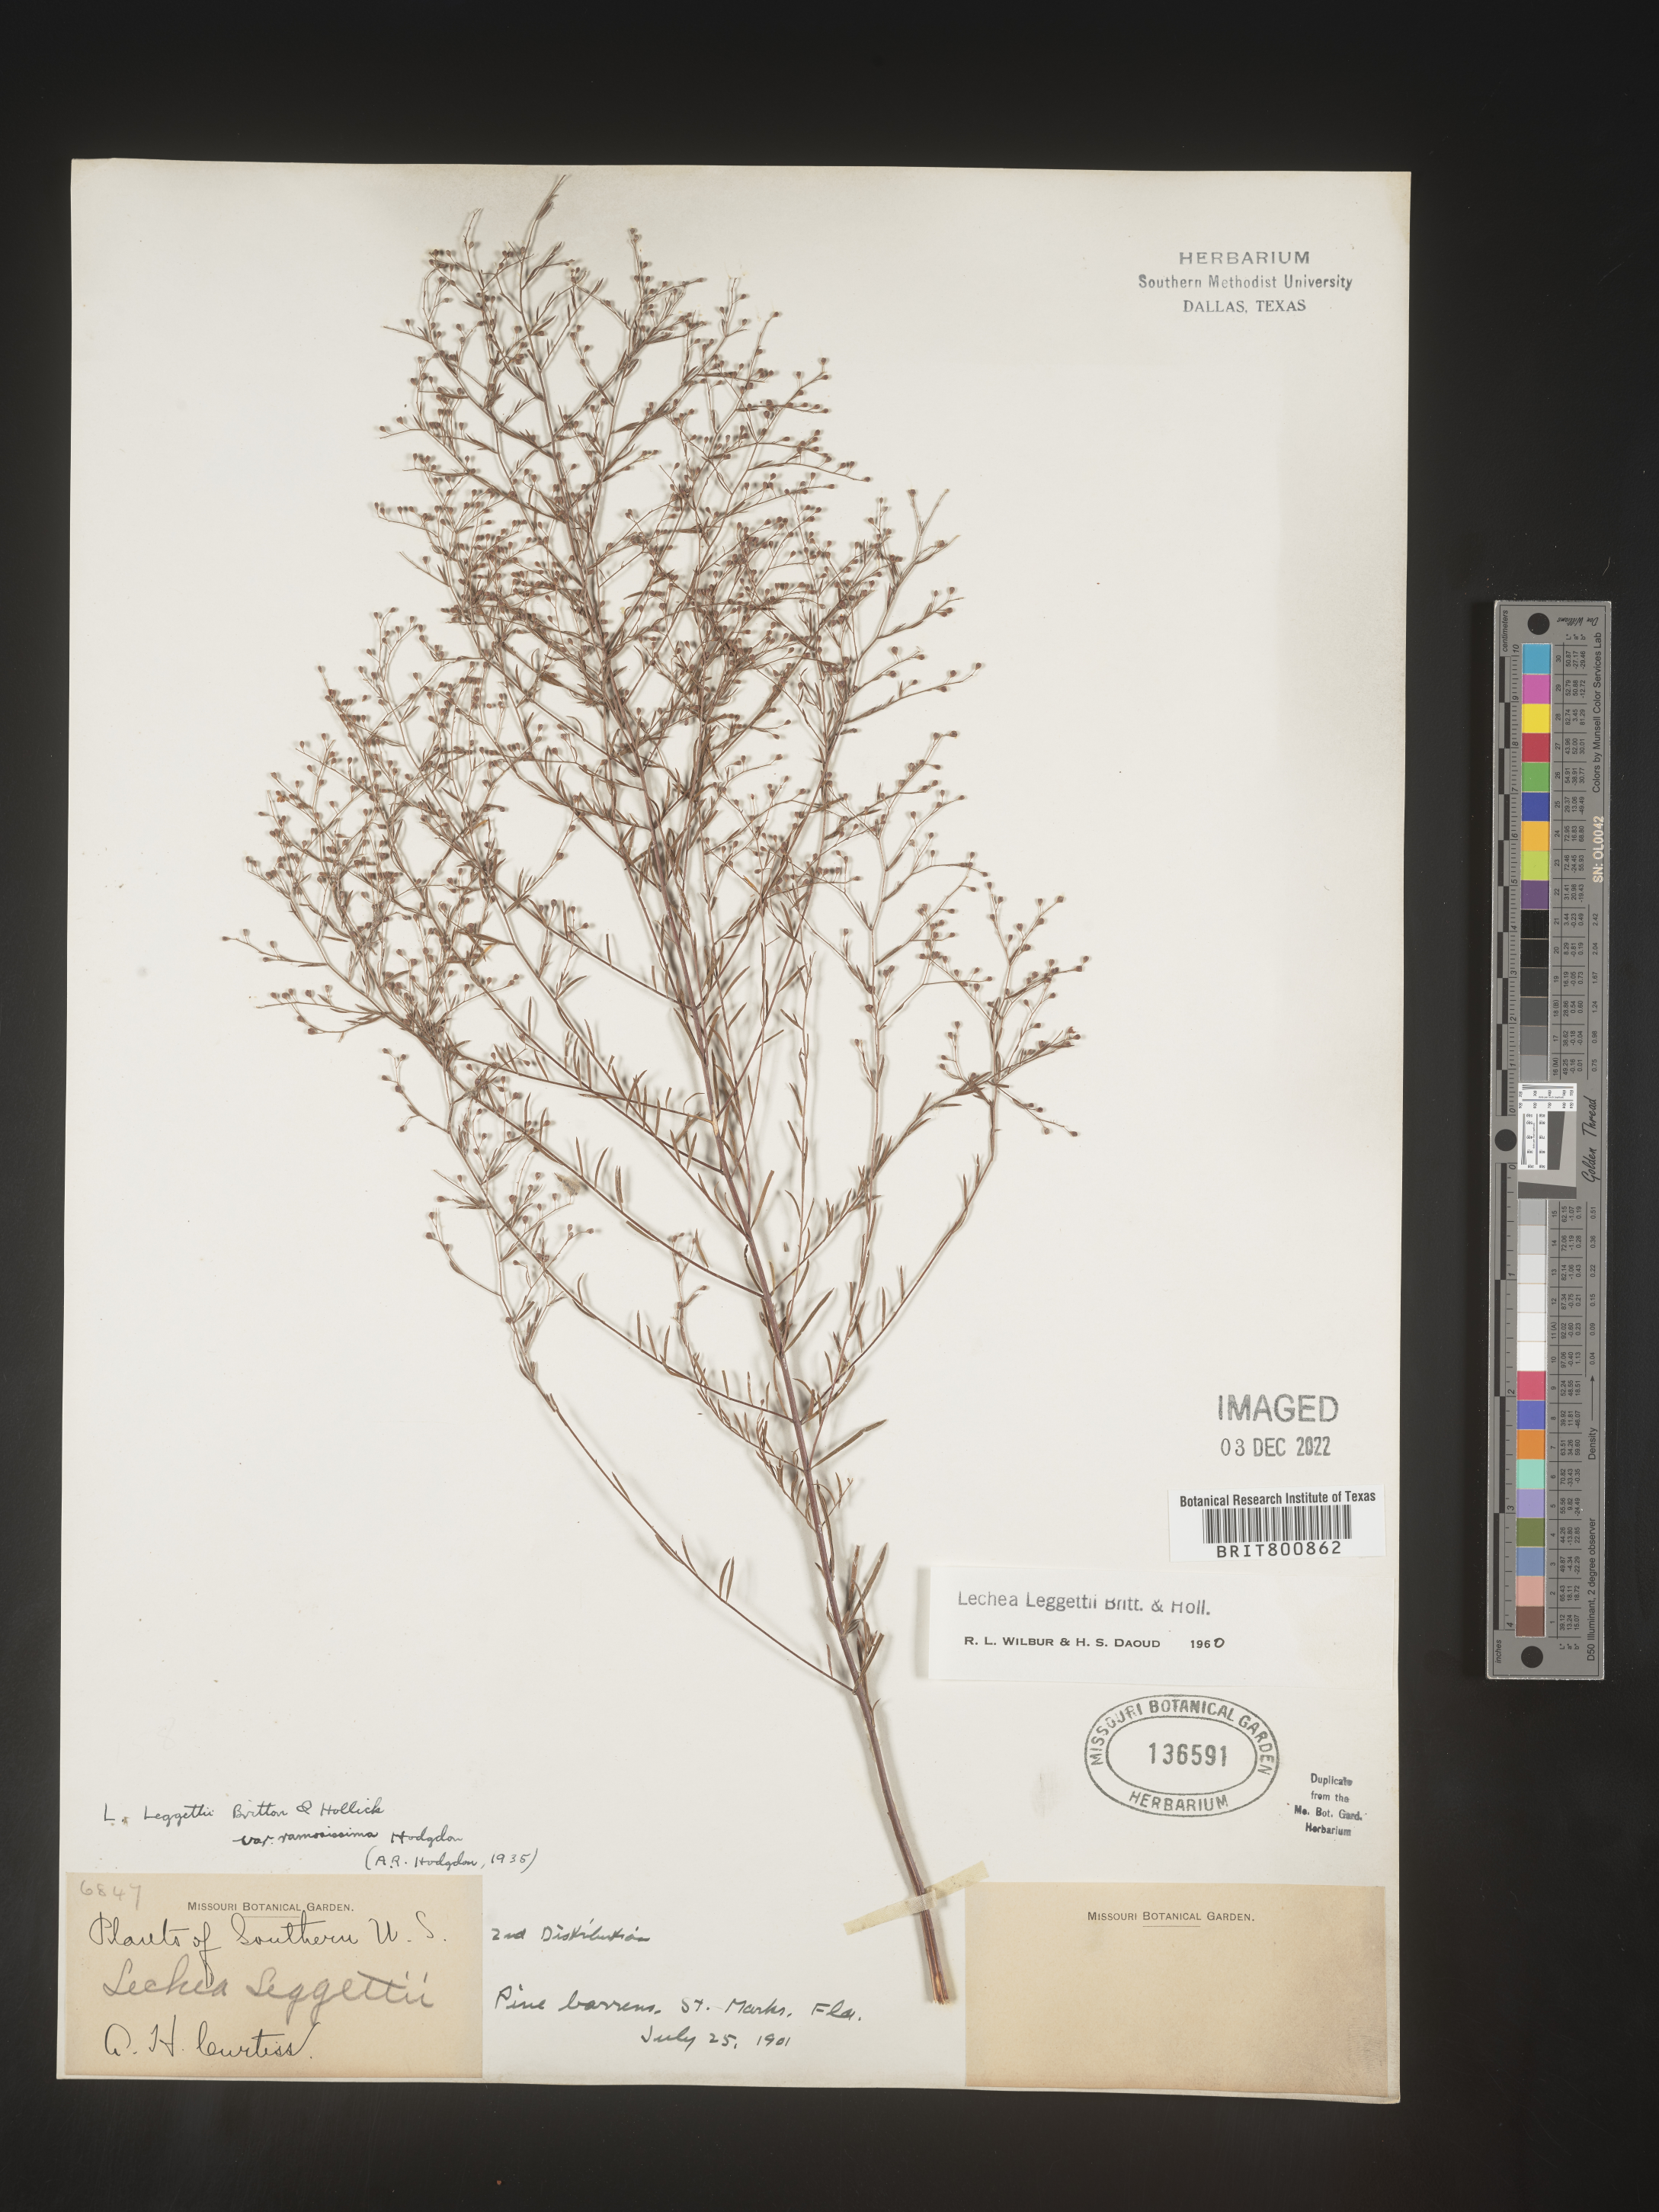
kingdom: Plantae
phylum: Tracheophyta
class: Magnoliopsida
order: Malvales
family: Cistaceae
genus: Lechea
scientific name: Lechea pulchella
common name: Leggett's pinweed
